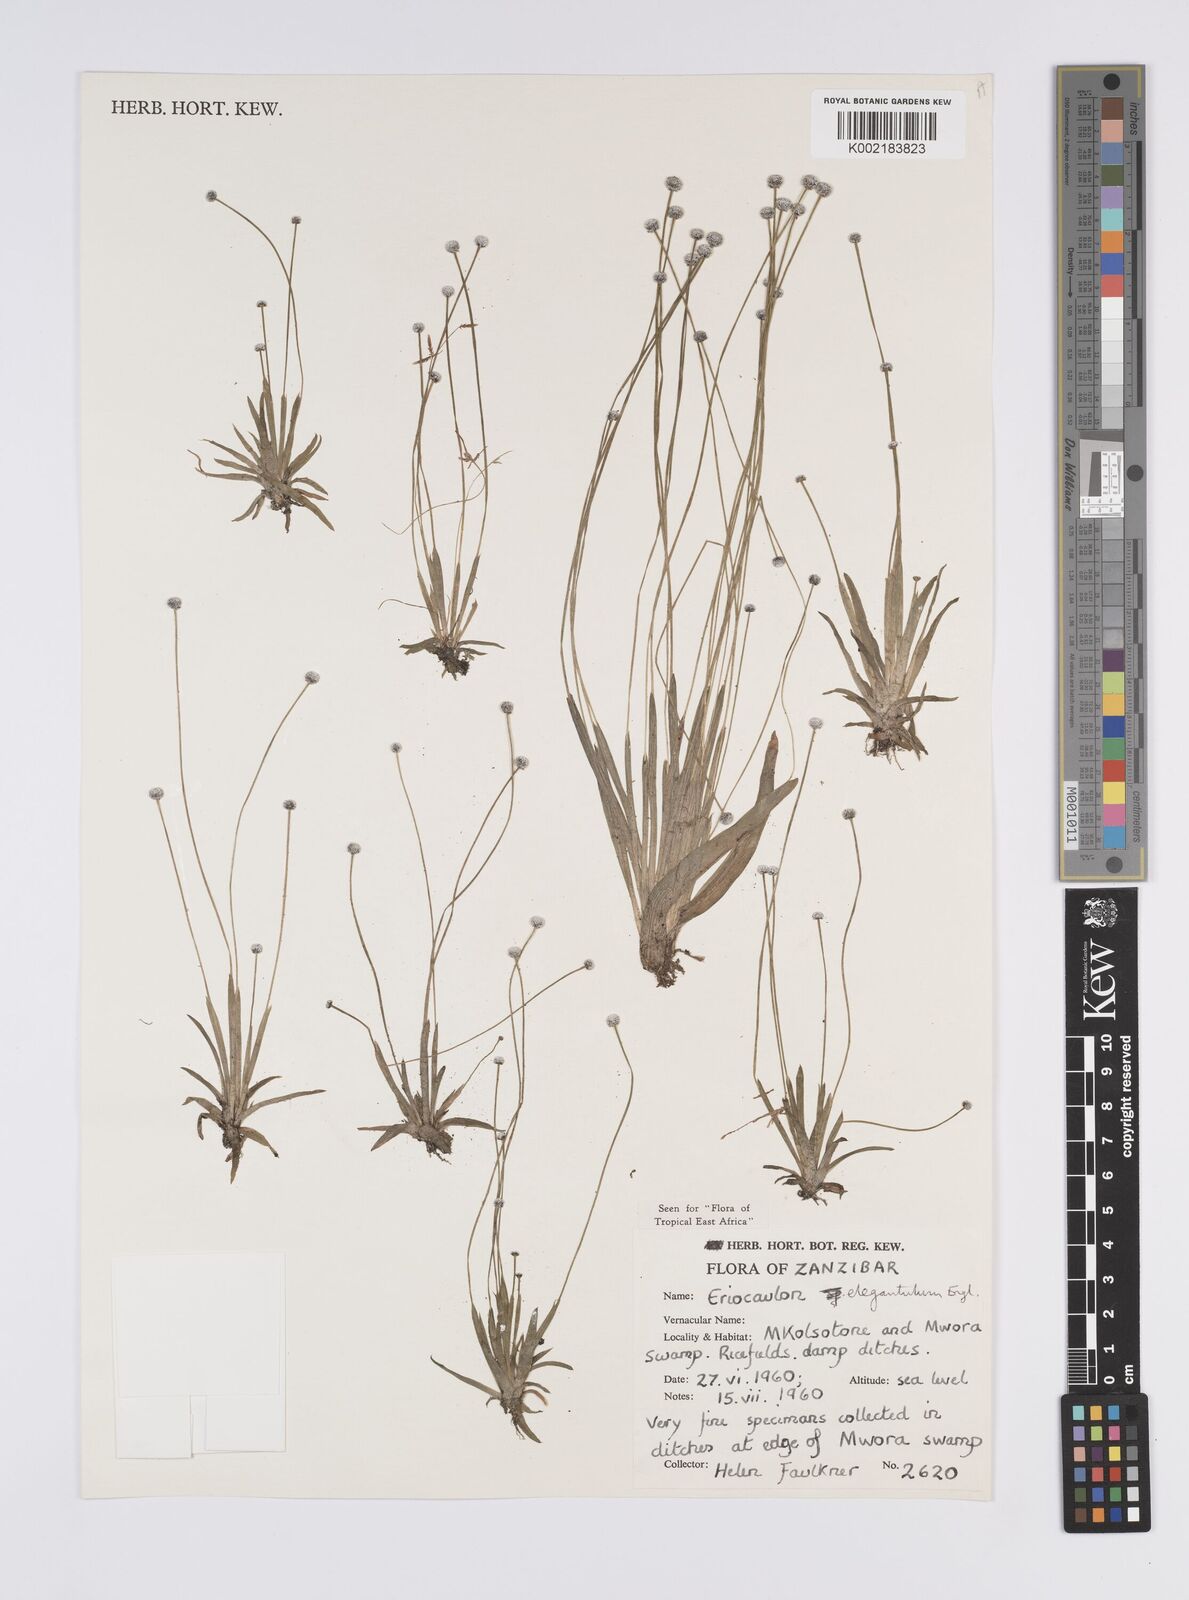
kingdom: Plantae
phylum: Tracheophyta
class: Liliopsida
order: Poales
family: Eriocaulaceae
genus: Eriocaulon
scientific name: Eriocaulon elegantulum
